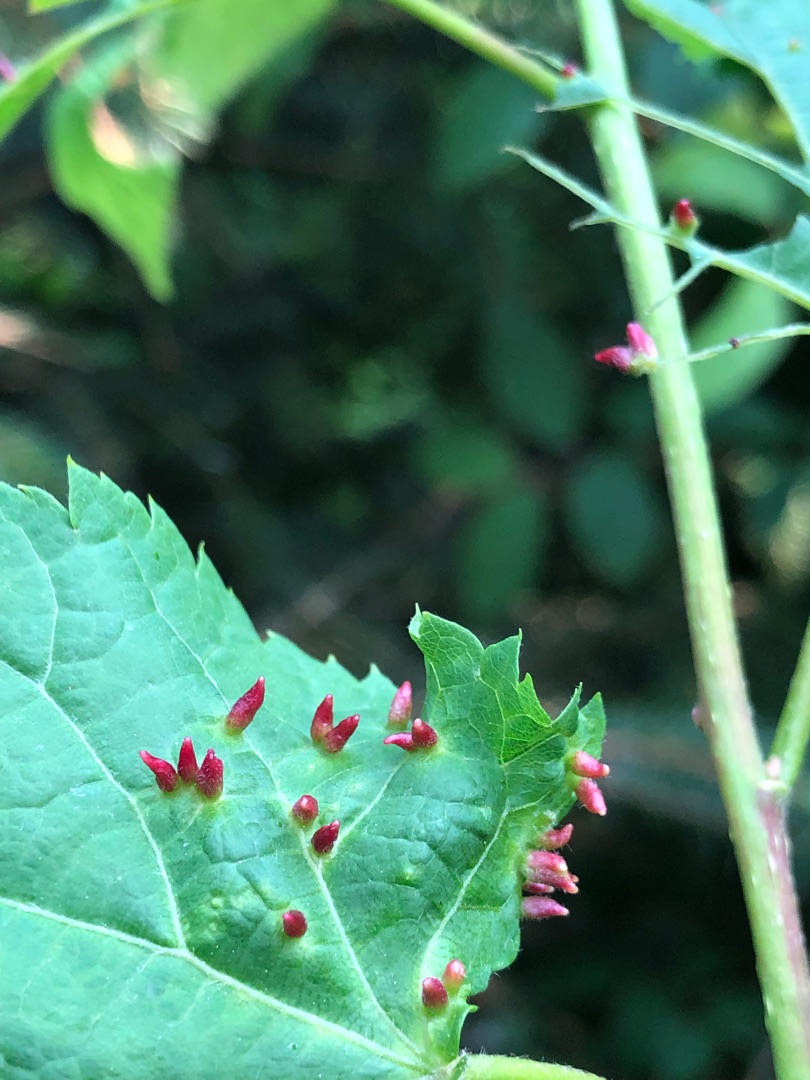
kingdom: Animalia
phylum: Arthropoda
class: Arachnida
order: Trombidiformes
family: Eriophyidae
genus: Eriophyes
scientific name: Eriophyes tiliae
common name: Lindepunggalmide
